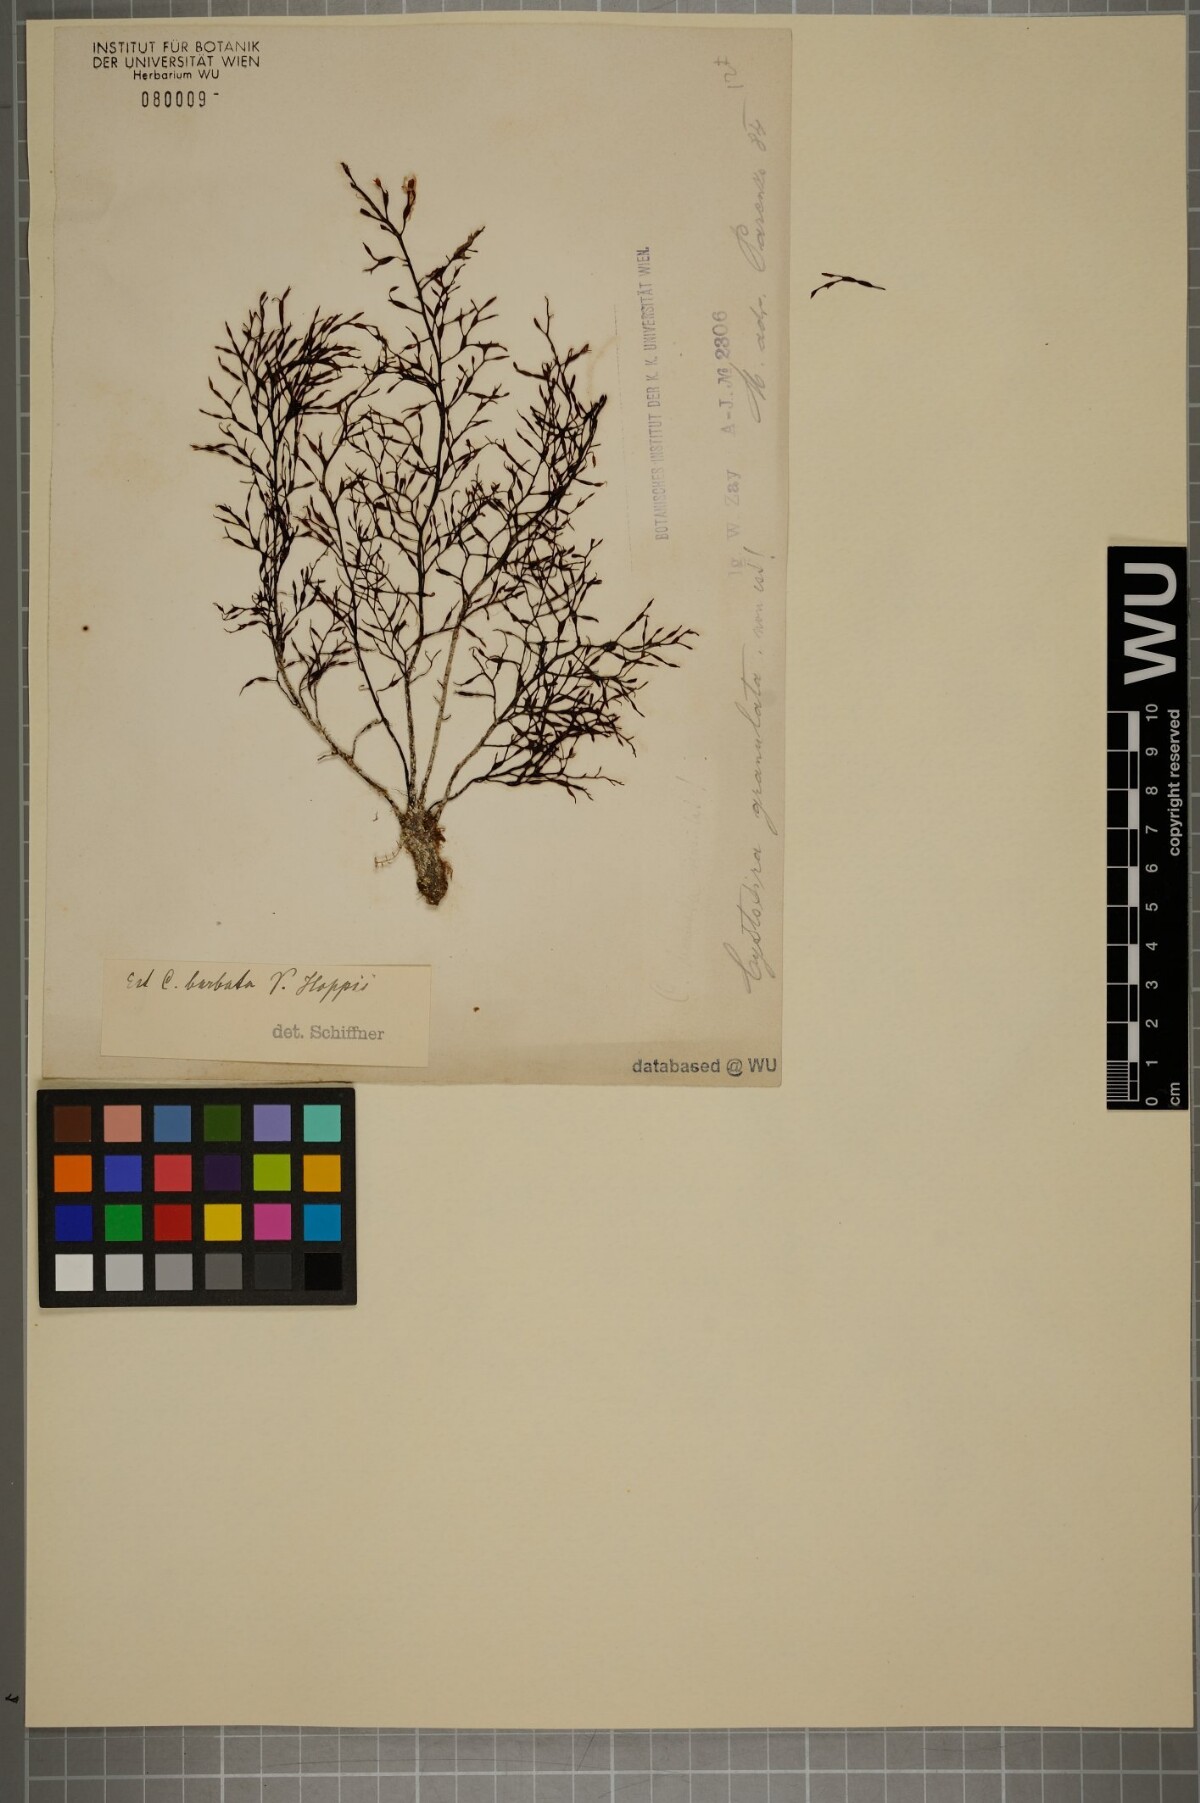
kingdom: Chromista
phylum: Ochrophyta
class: Phaeophyceae
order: Fucales
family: Sargassaceae
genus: Cystoseira
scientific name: Cystoseira Gongolaria barbata
